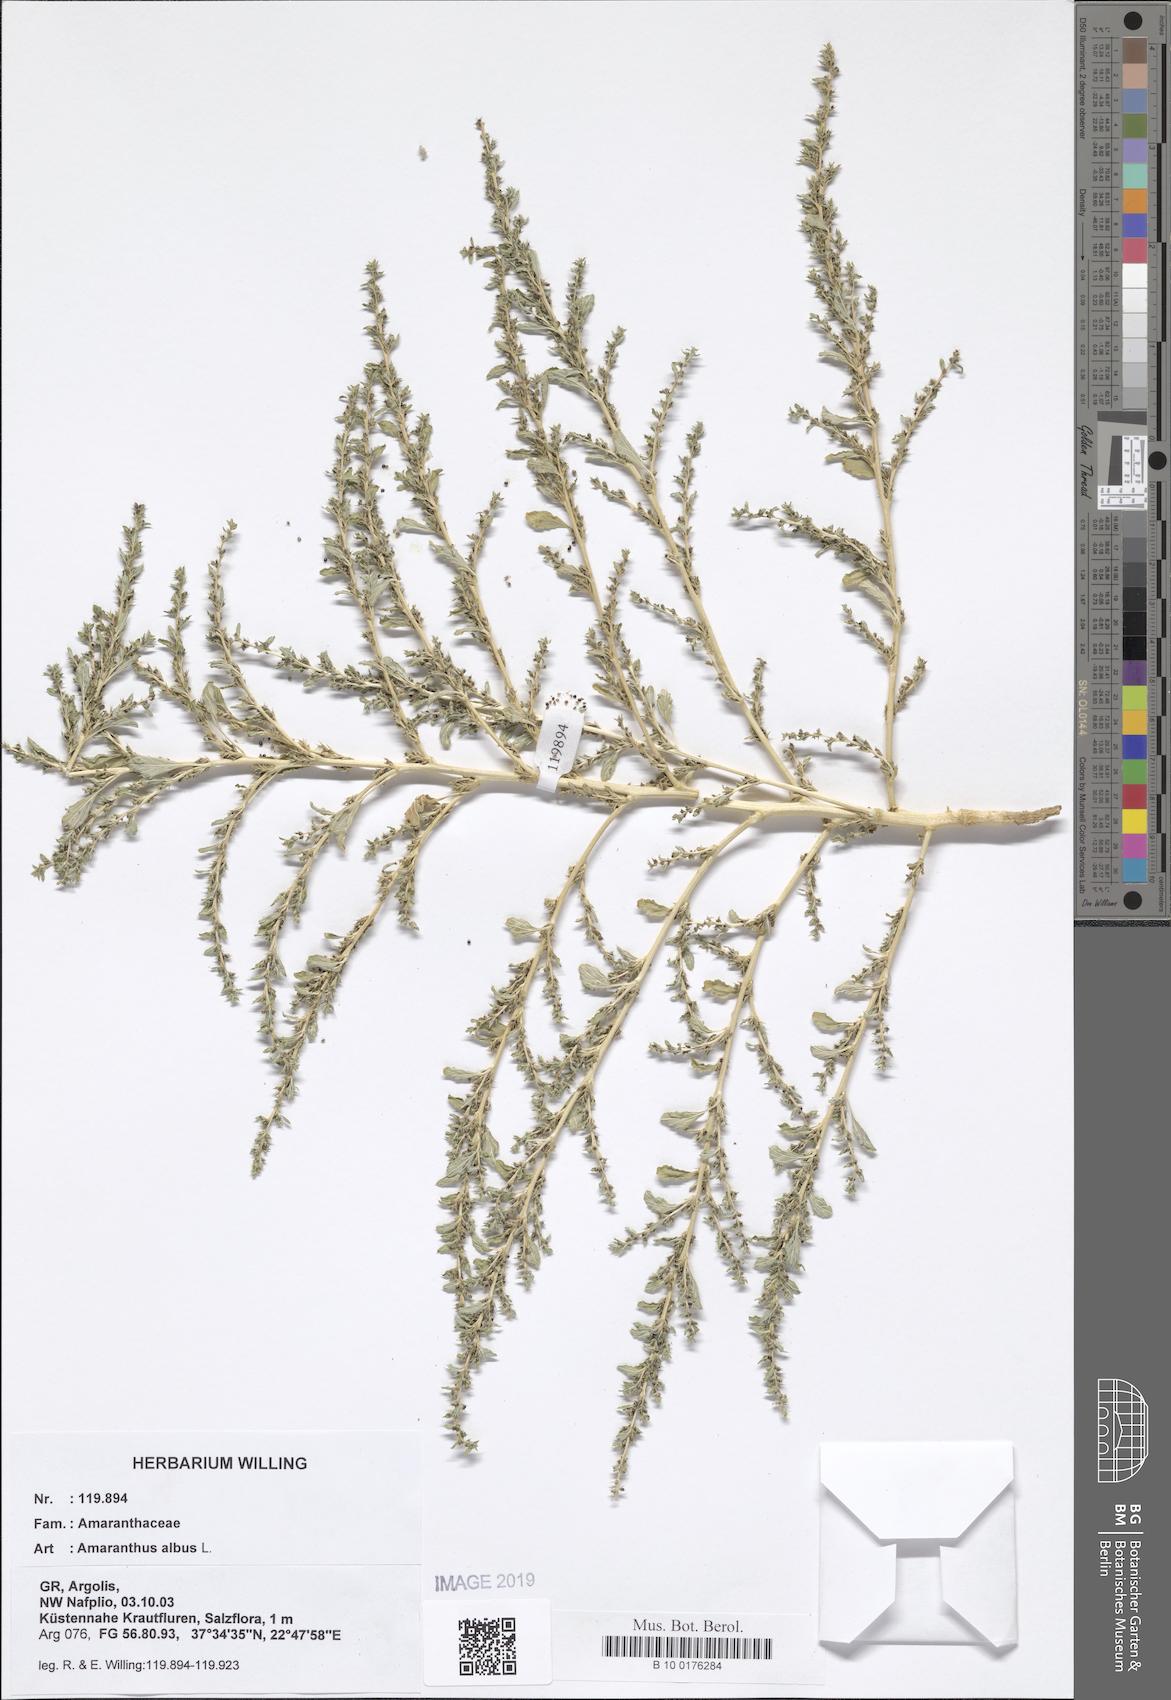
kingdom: Plantae
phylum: Tracheophyta
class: Magnoliopsida
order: Caryophyllales
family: Amaranthaceae
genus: Amaranthus
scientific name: Amaranthus albus
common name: White pigweed
